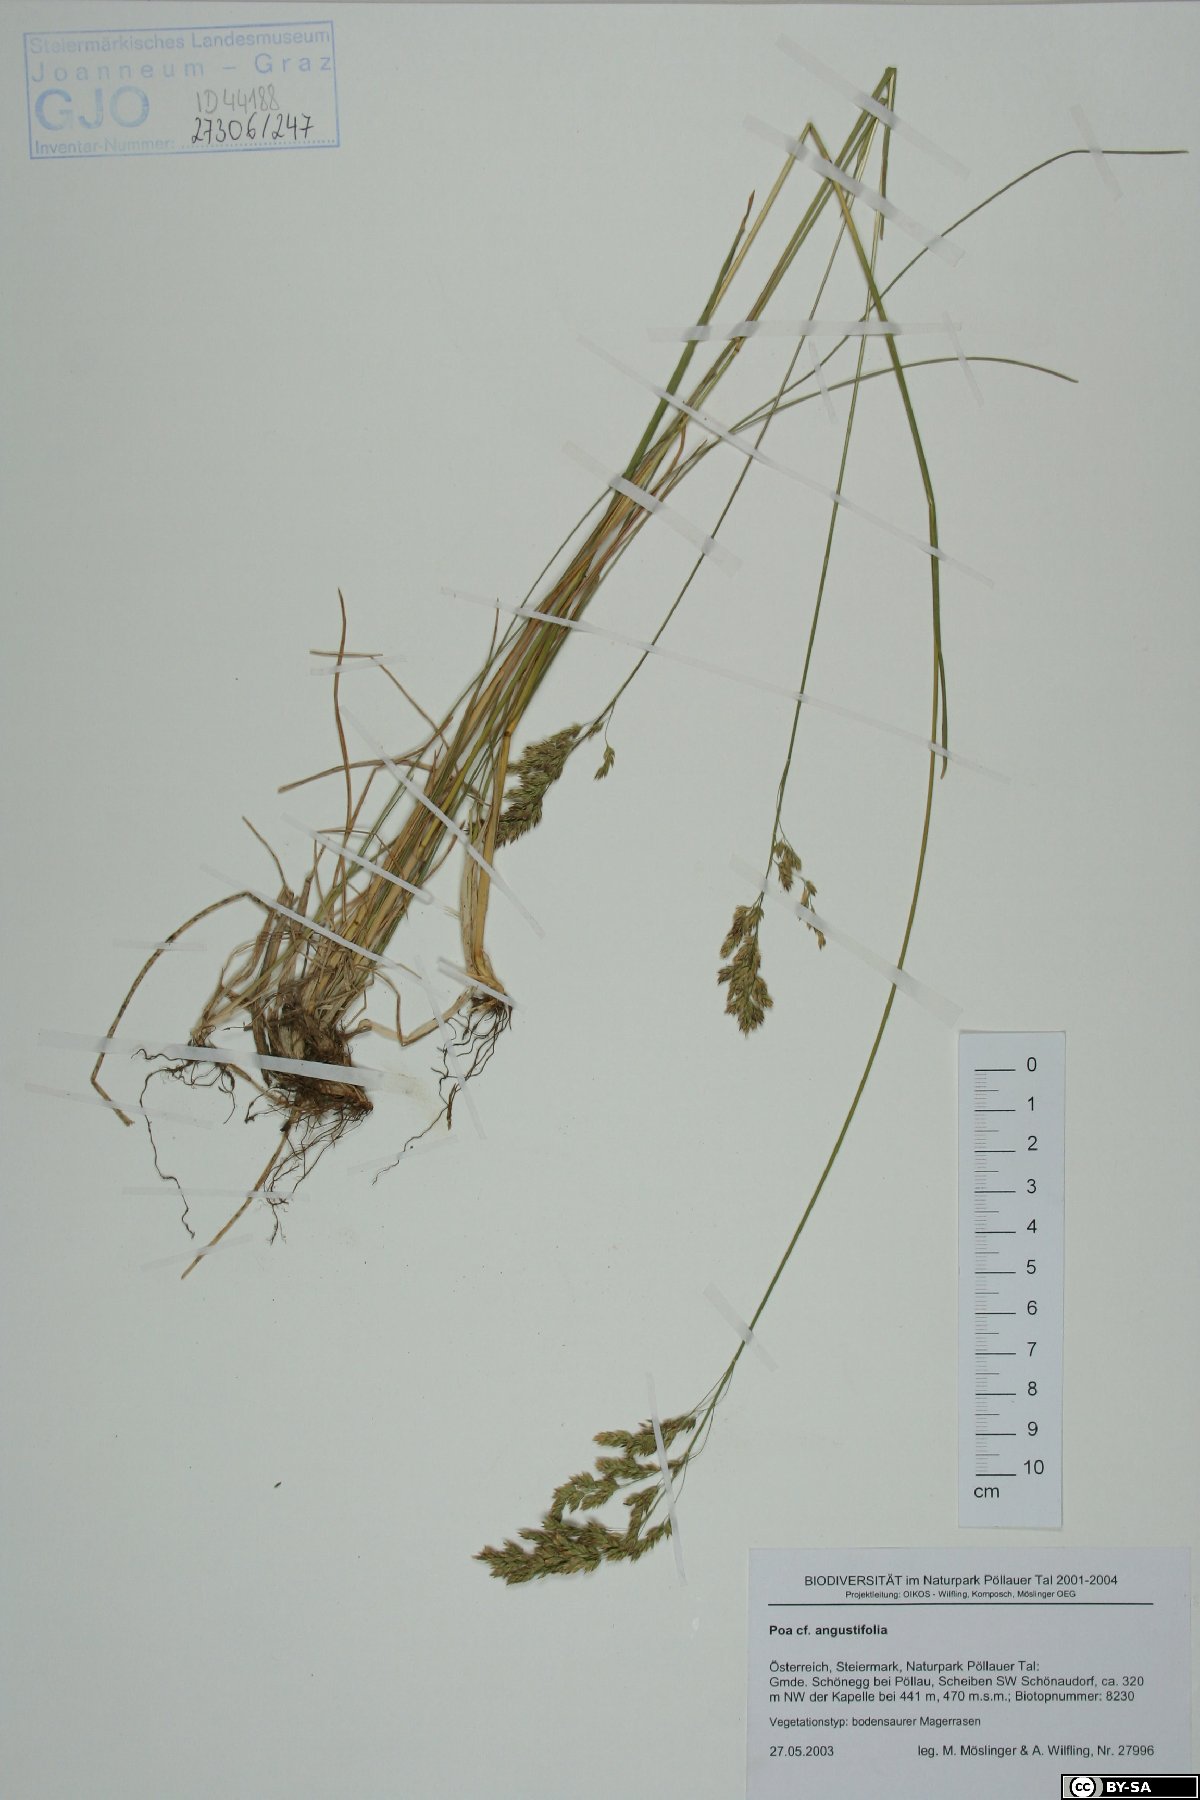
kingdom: Plantae
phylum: Tracheophyta
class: Liliopsida
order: Poales
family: Poaceae
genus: Poa
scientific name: Poa angustifolia
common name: Narrow-leaved meadow-grass
